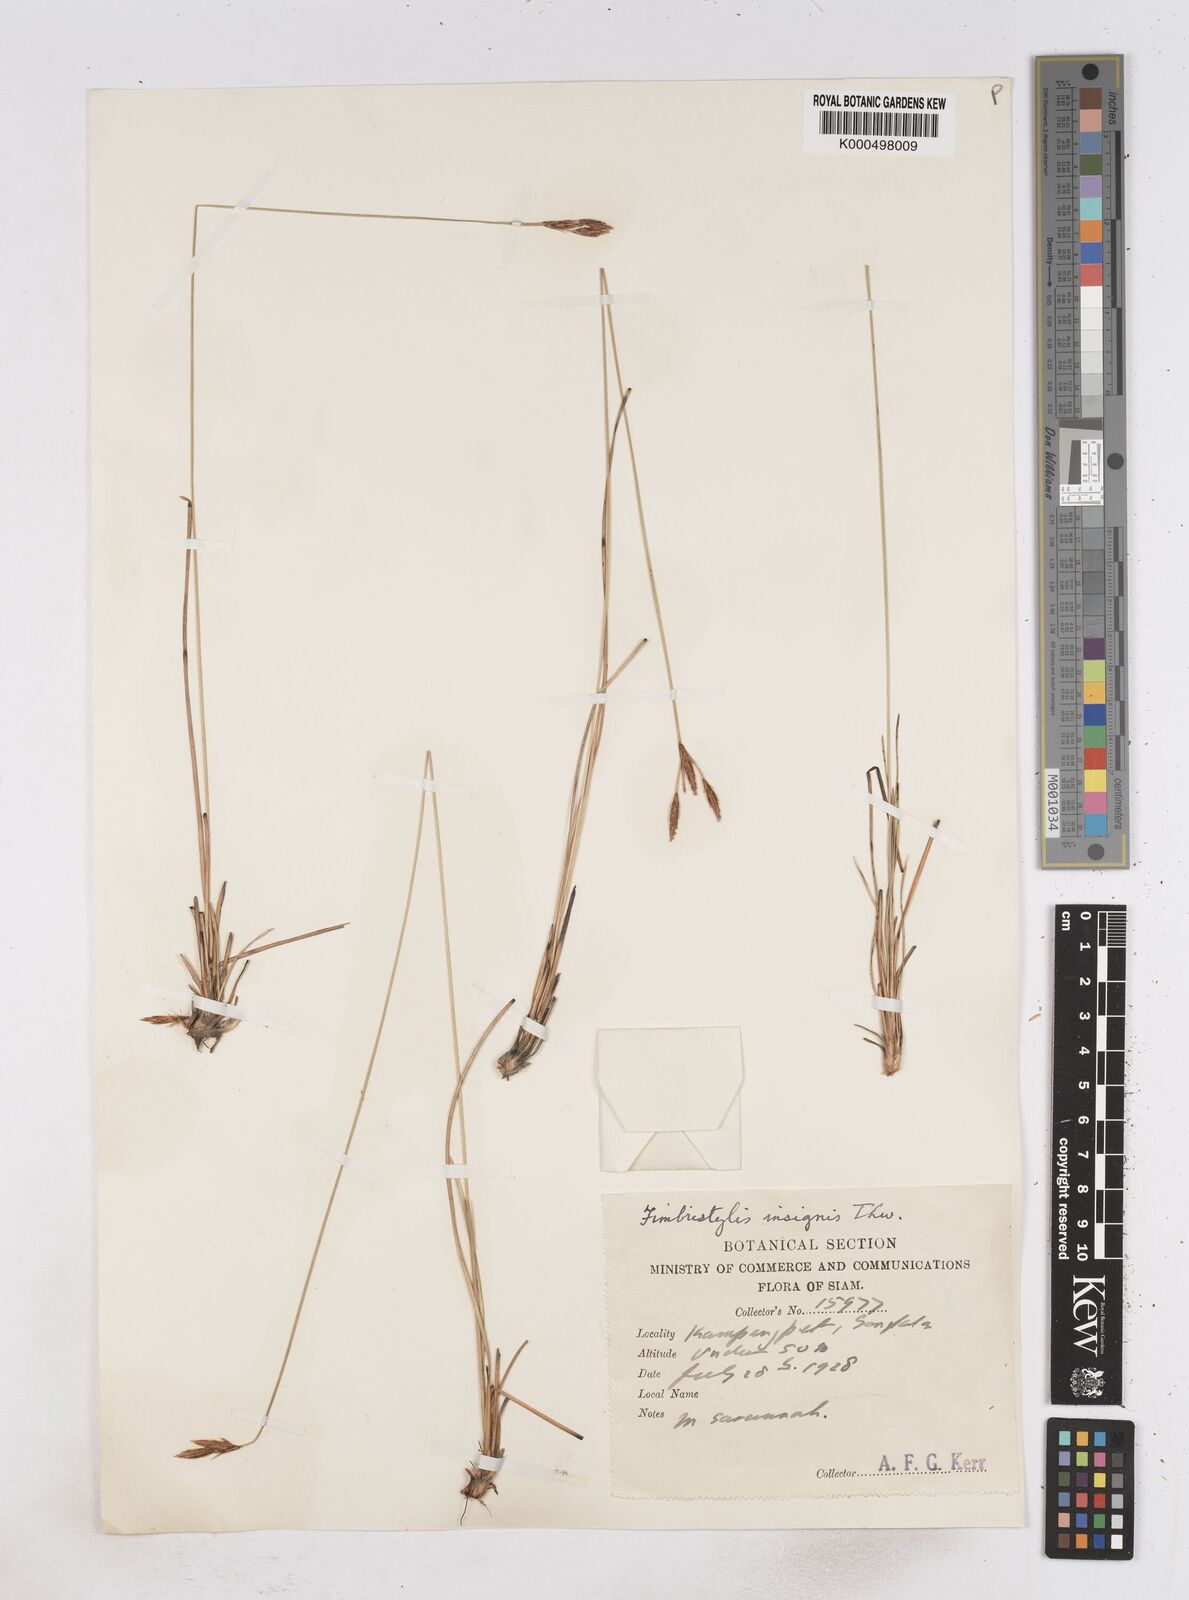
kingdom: Plantae
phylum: Tracheophyta
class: Liliopsida
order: Poales
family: Cyperaceae
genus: Fimbristylis
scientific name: Fimbristylis insignis
